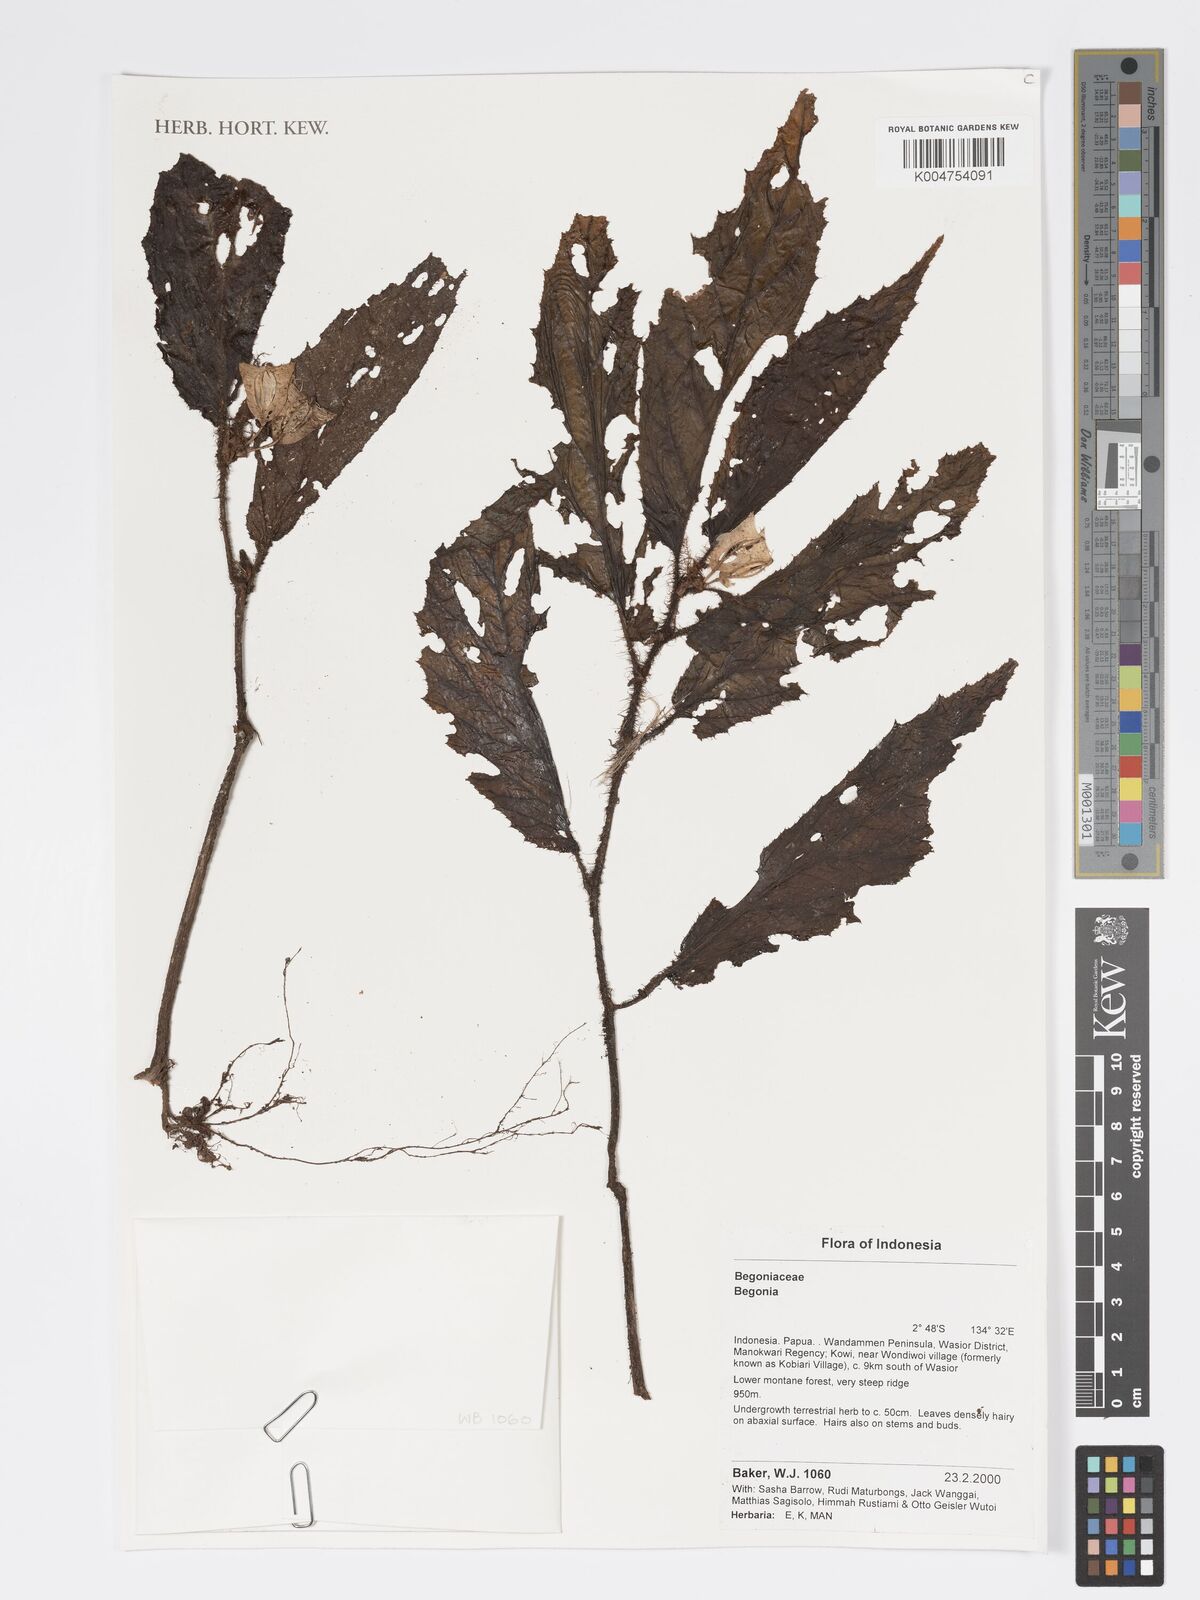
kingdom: Plantae
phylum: Tracheophyta
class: Magnoliopsida
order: Cucurbitales
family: Begoniaceae
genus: Begonia
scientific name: Begonia
